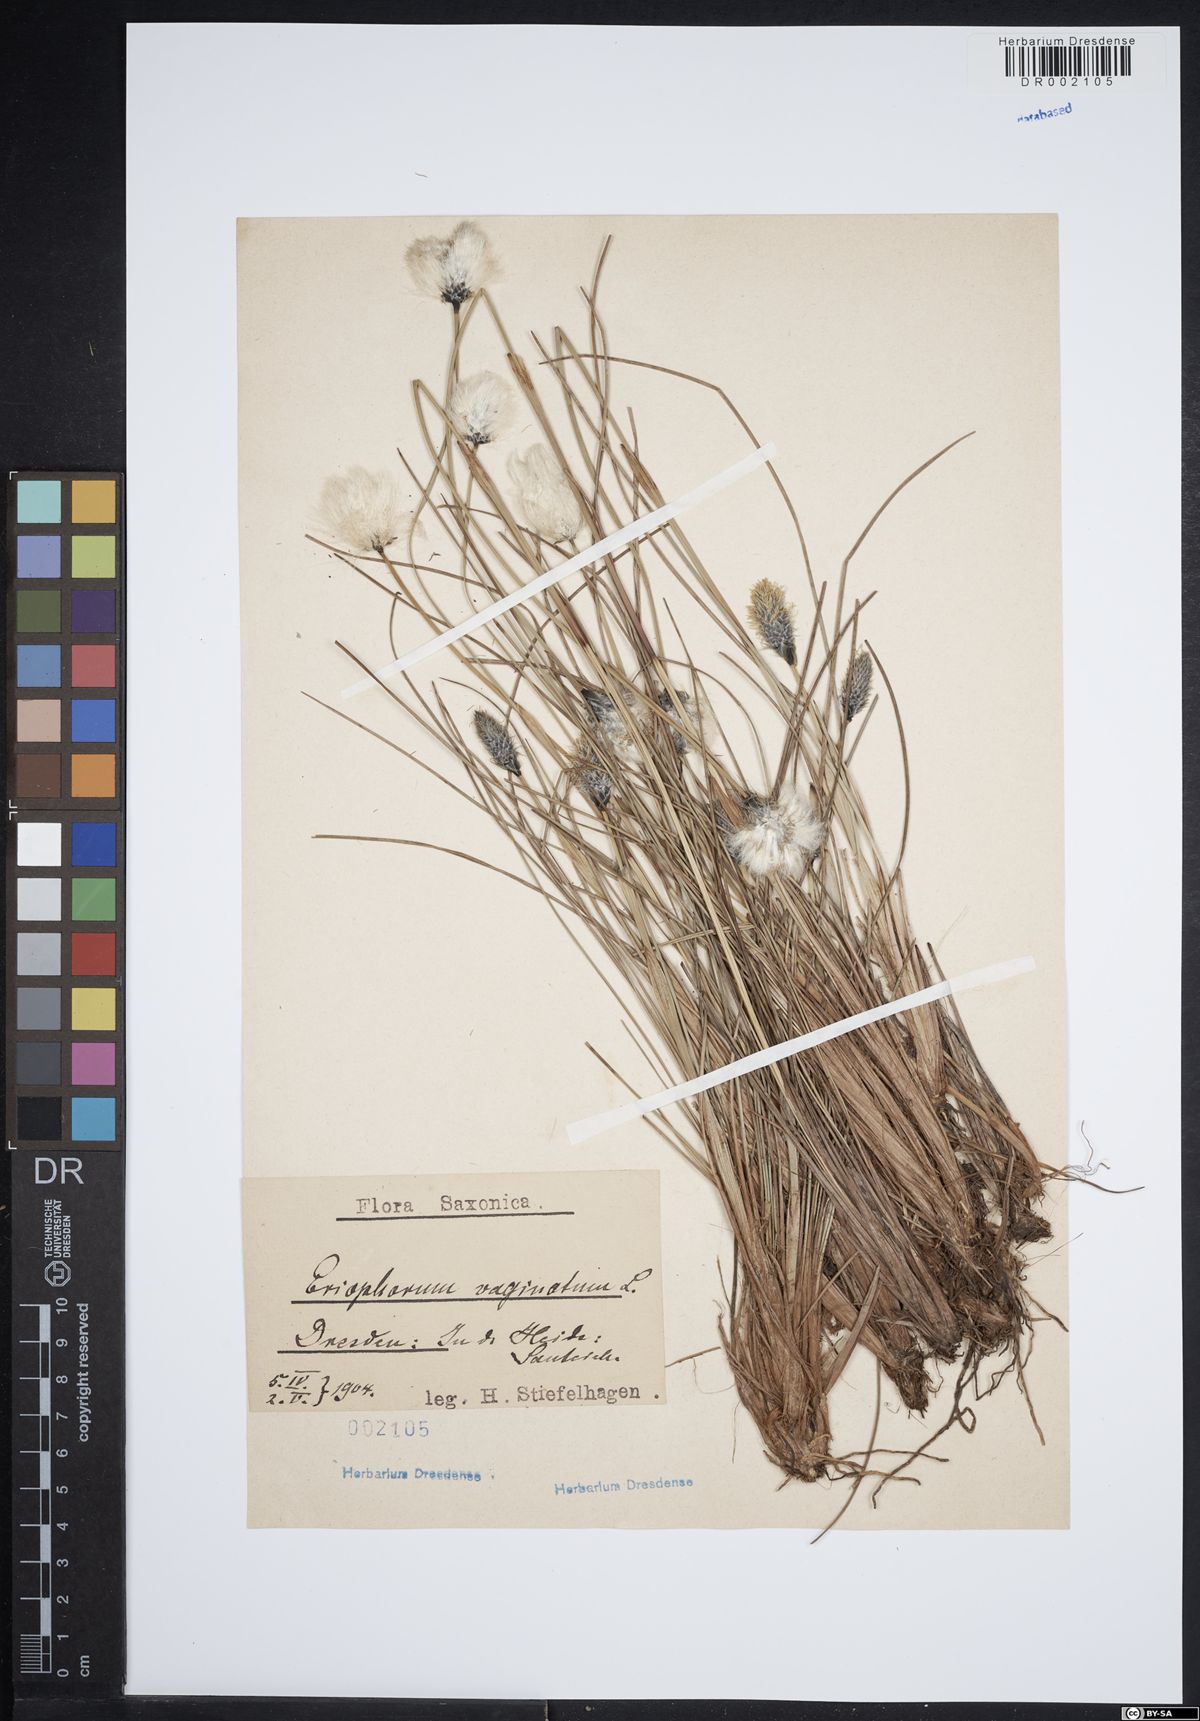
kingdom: Plantae
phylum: Tracheophyta
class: Liliopsida
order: Poales
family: Cyperaceae
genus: Eriophorum
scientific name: Eriophorum vaginatum
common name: Hare's-tail cottongrass
